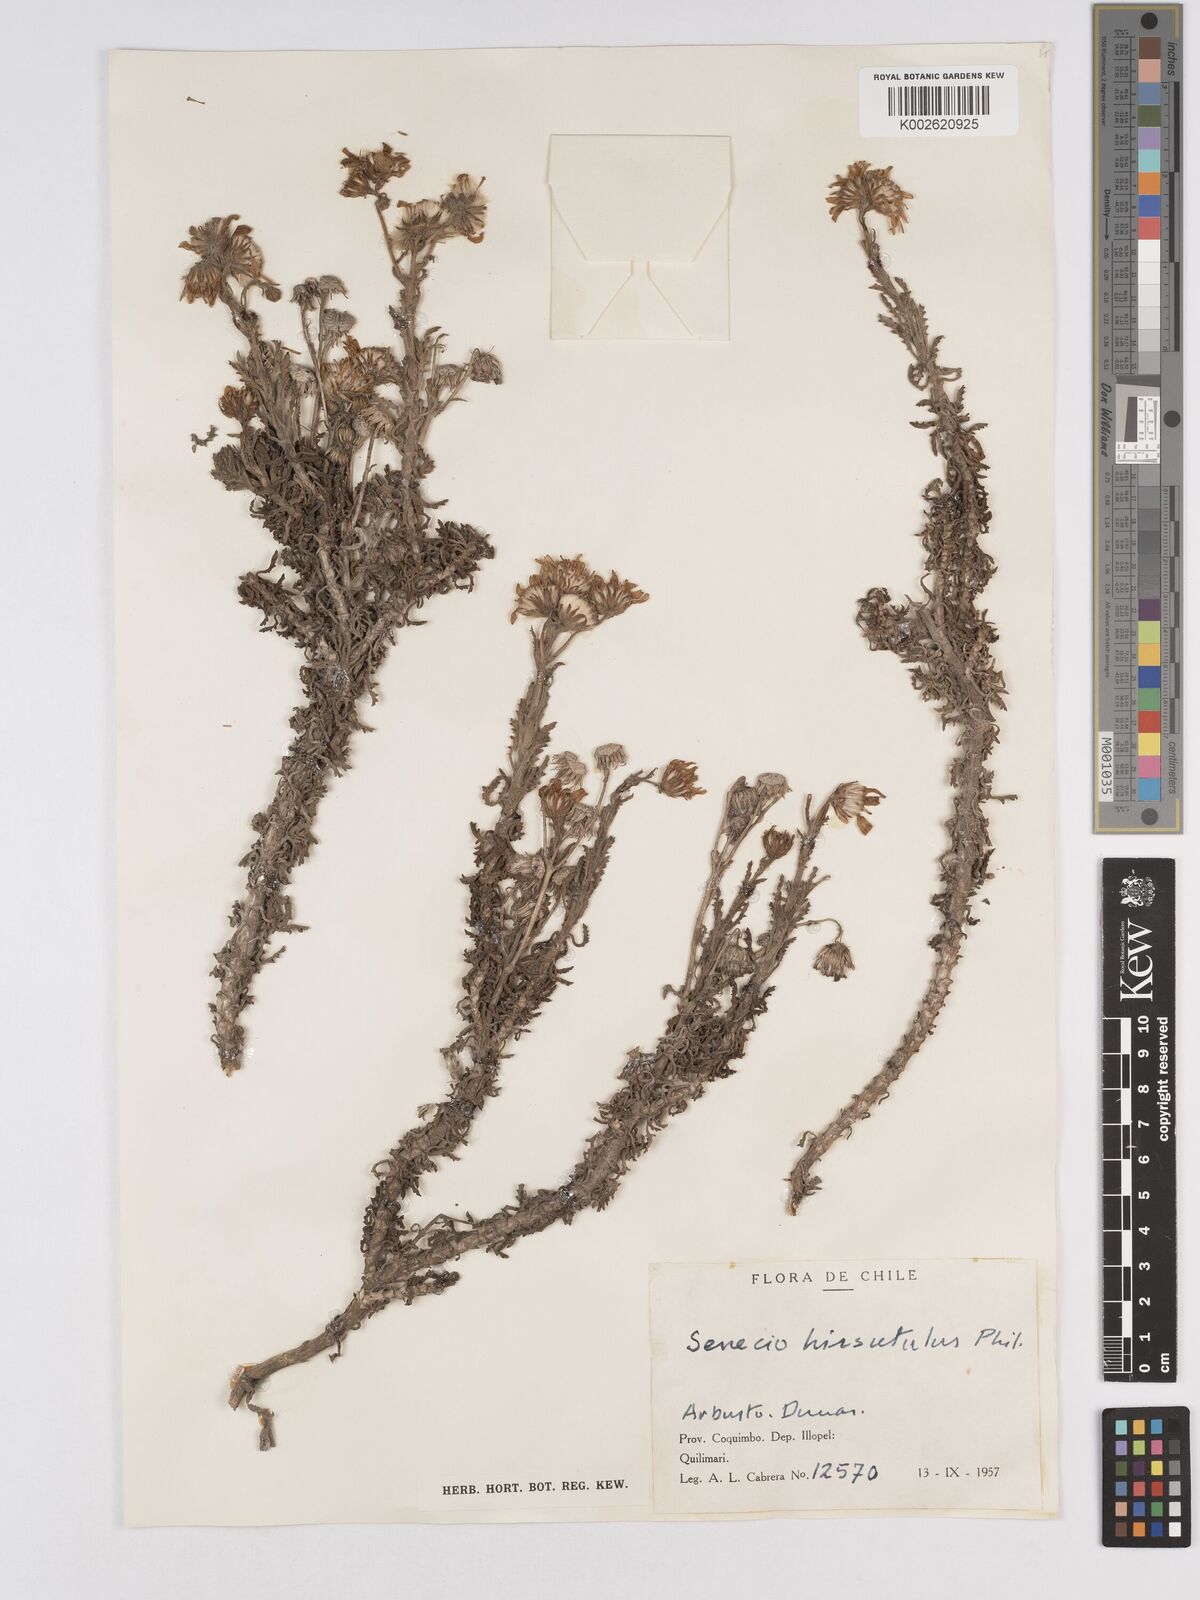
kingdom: Plantae
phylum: Tracheophyta
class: Magnoliopsida
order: Asterales
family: Asteraceae
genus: Senecio
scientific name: Senecio hirsutulus
